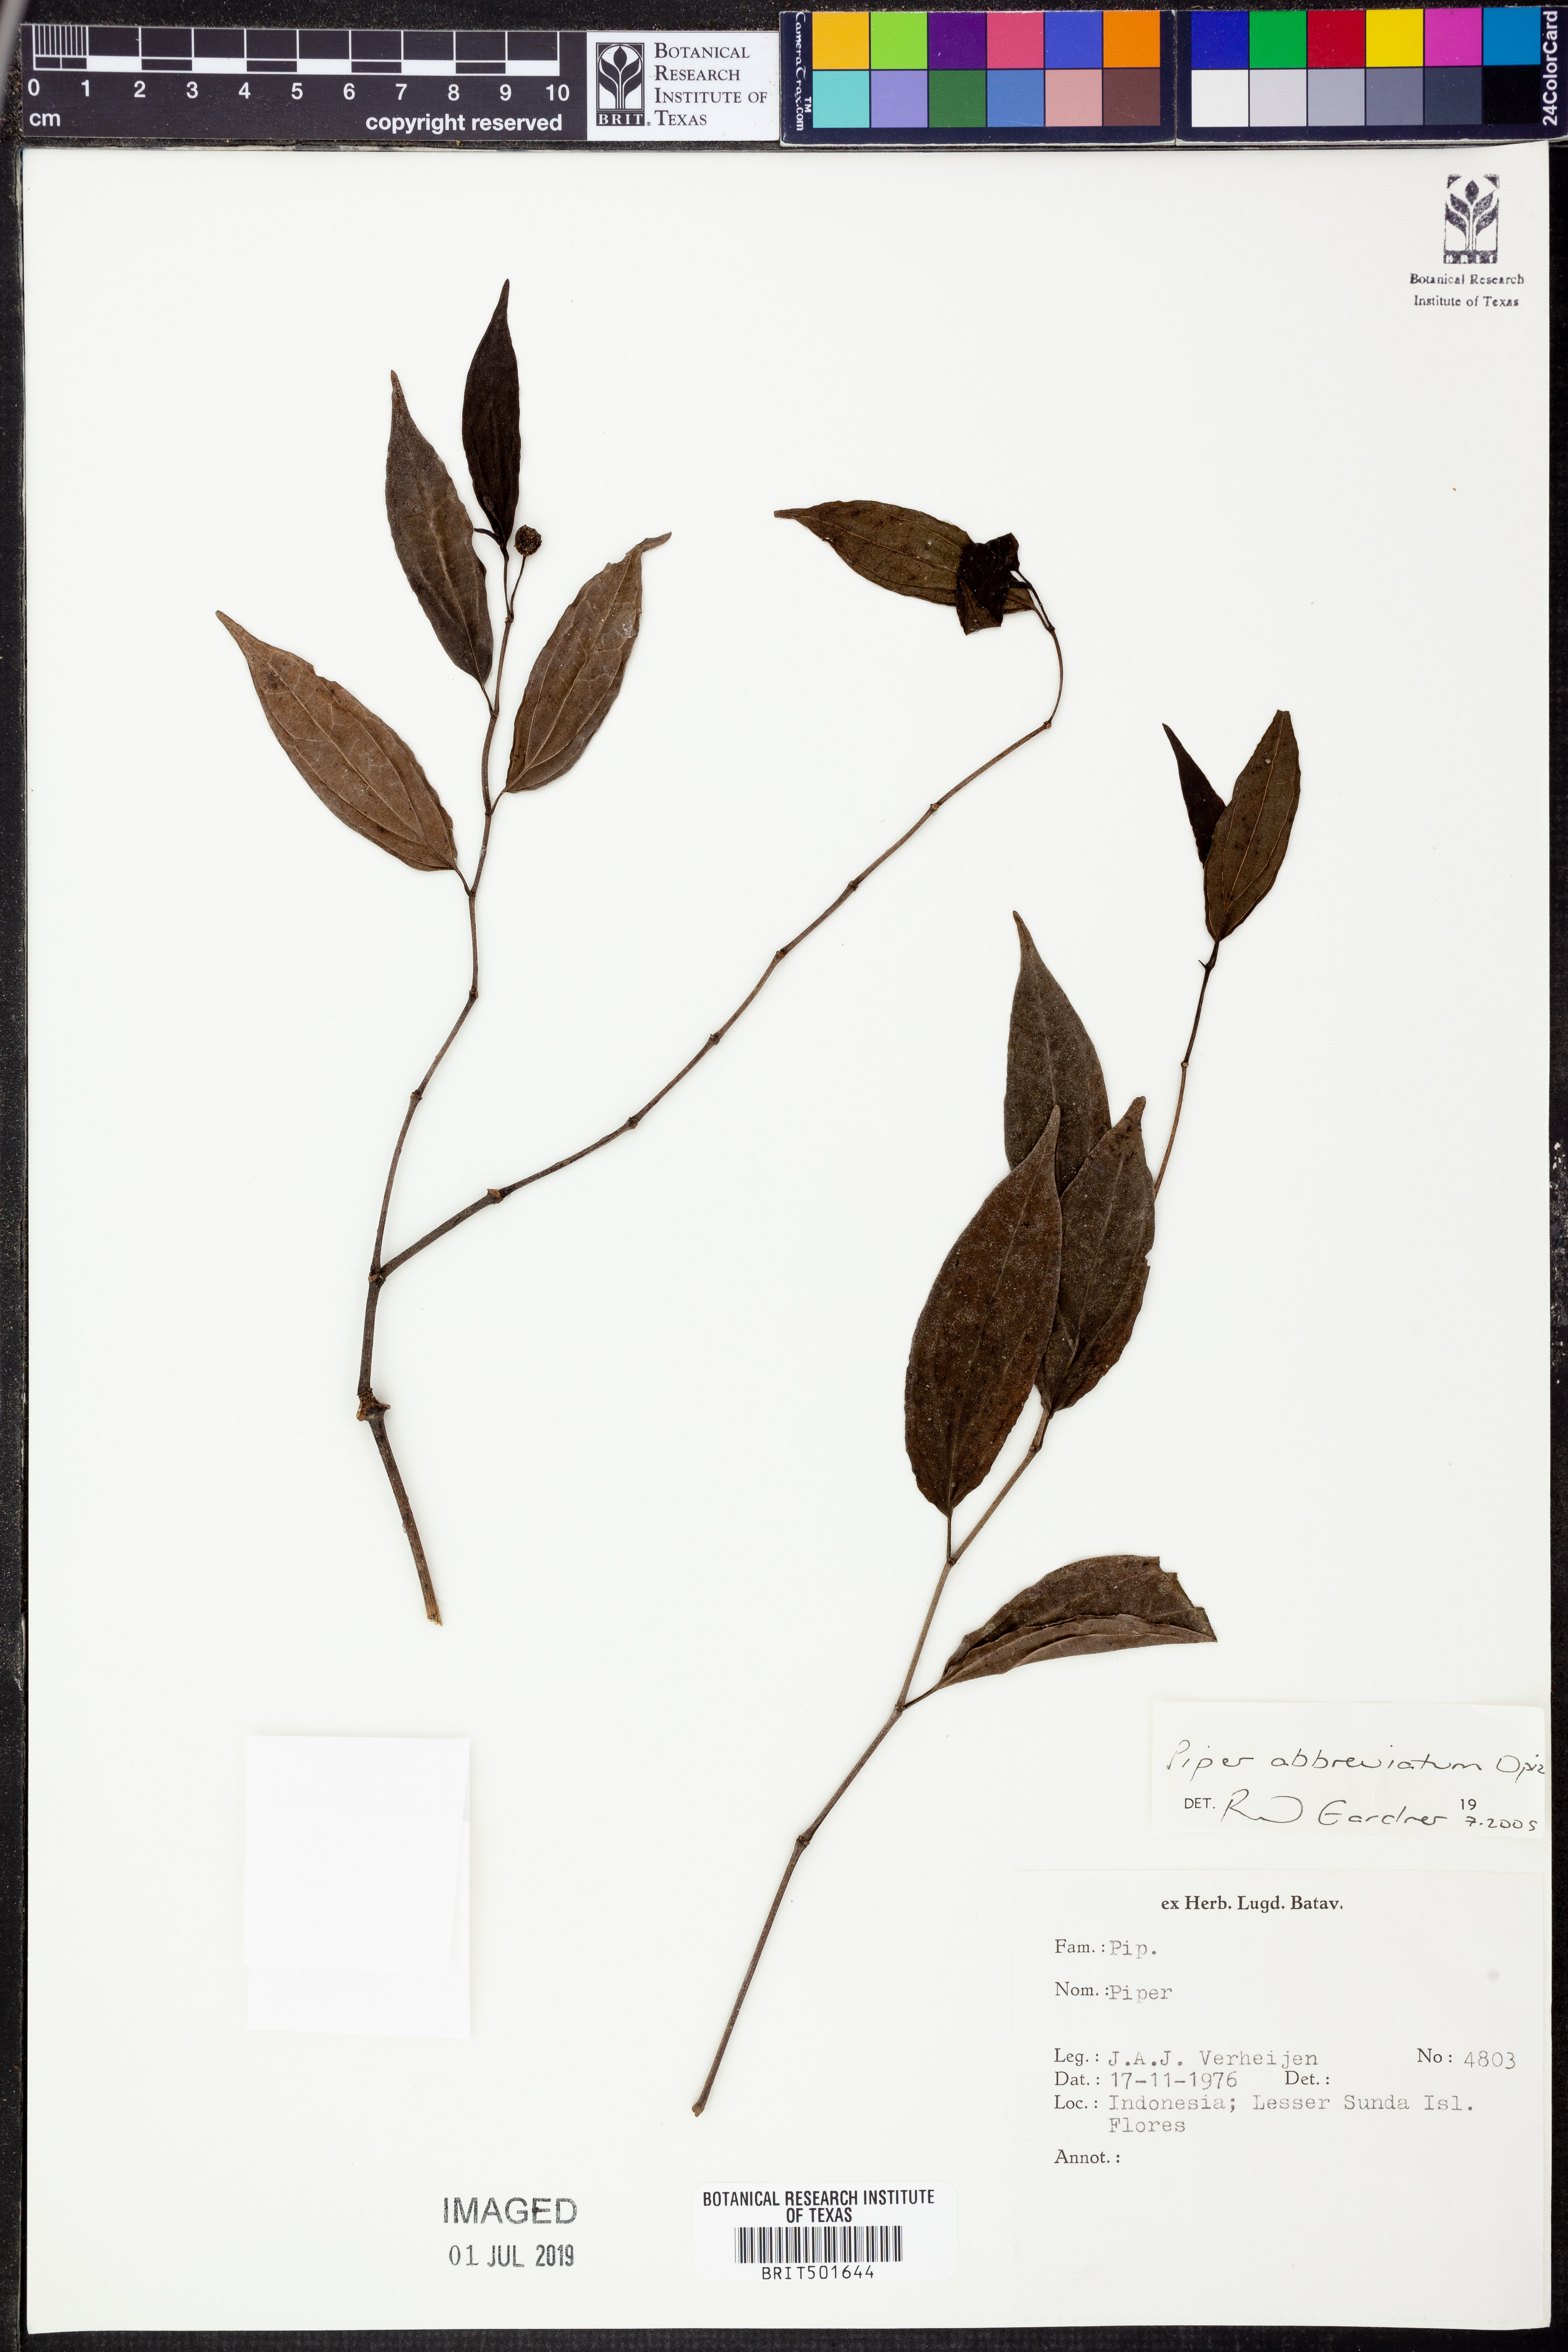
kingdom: Plantae
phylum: Tracheophyta
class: Magnoliopsida
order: Piperales
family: Piperaceae
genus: Piper
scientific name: Piper abbreviatum
